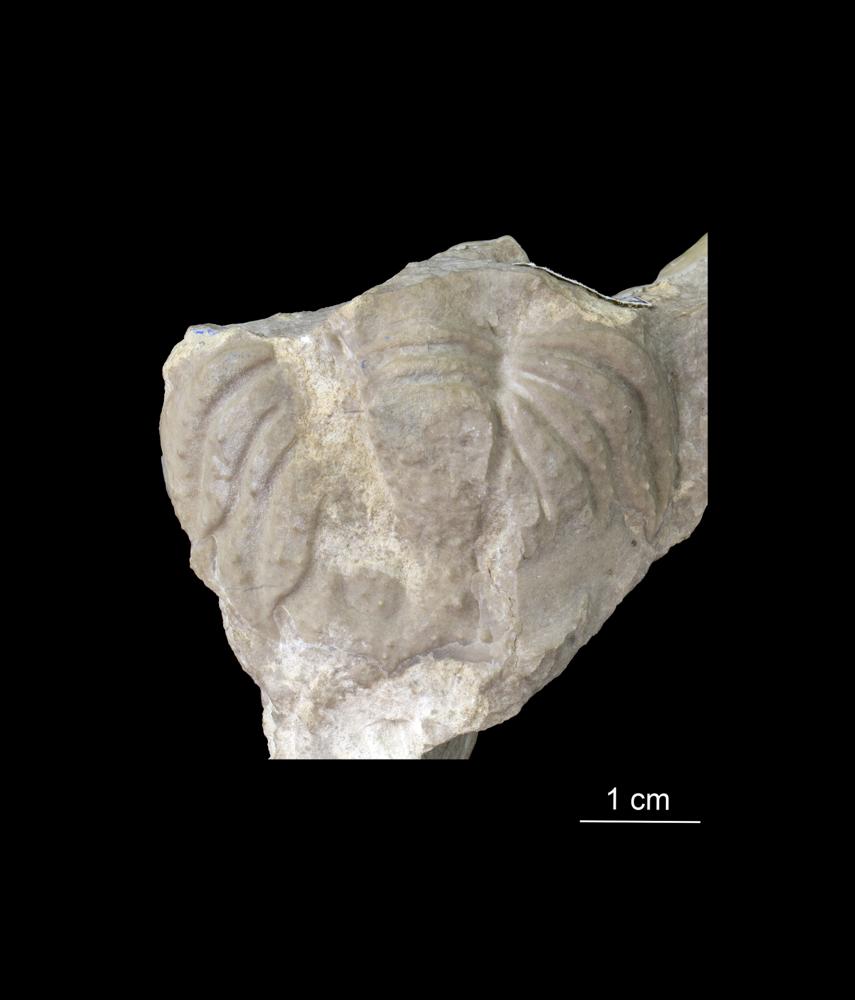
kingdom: Animalia
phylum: Arthropoda
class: Trilobita
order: Lichida
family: Lichidae
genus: Conolichas
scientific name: Conolichas deflexus
